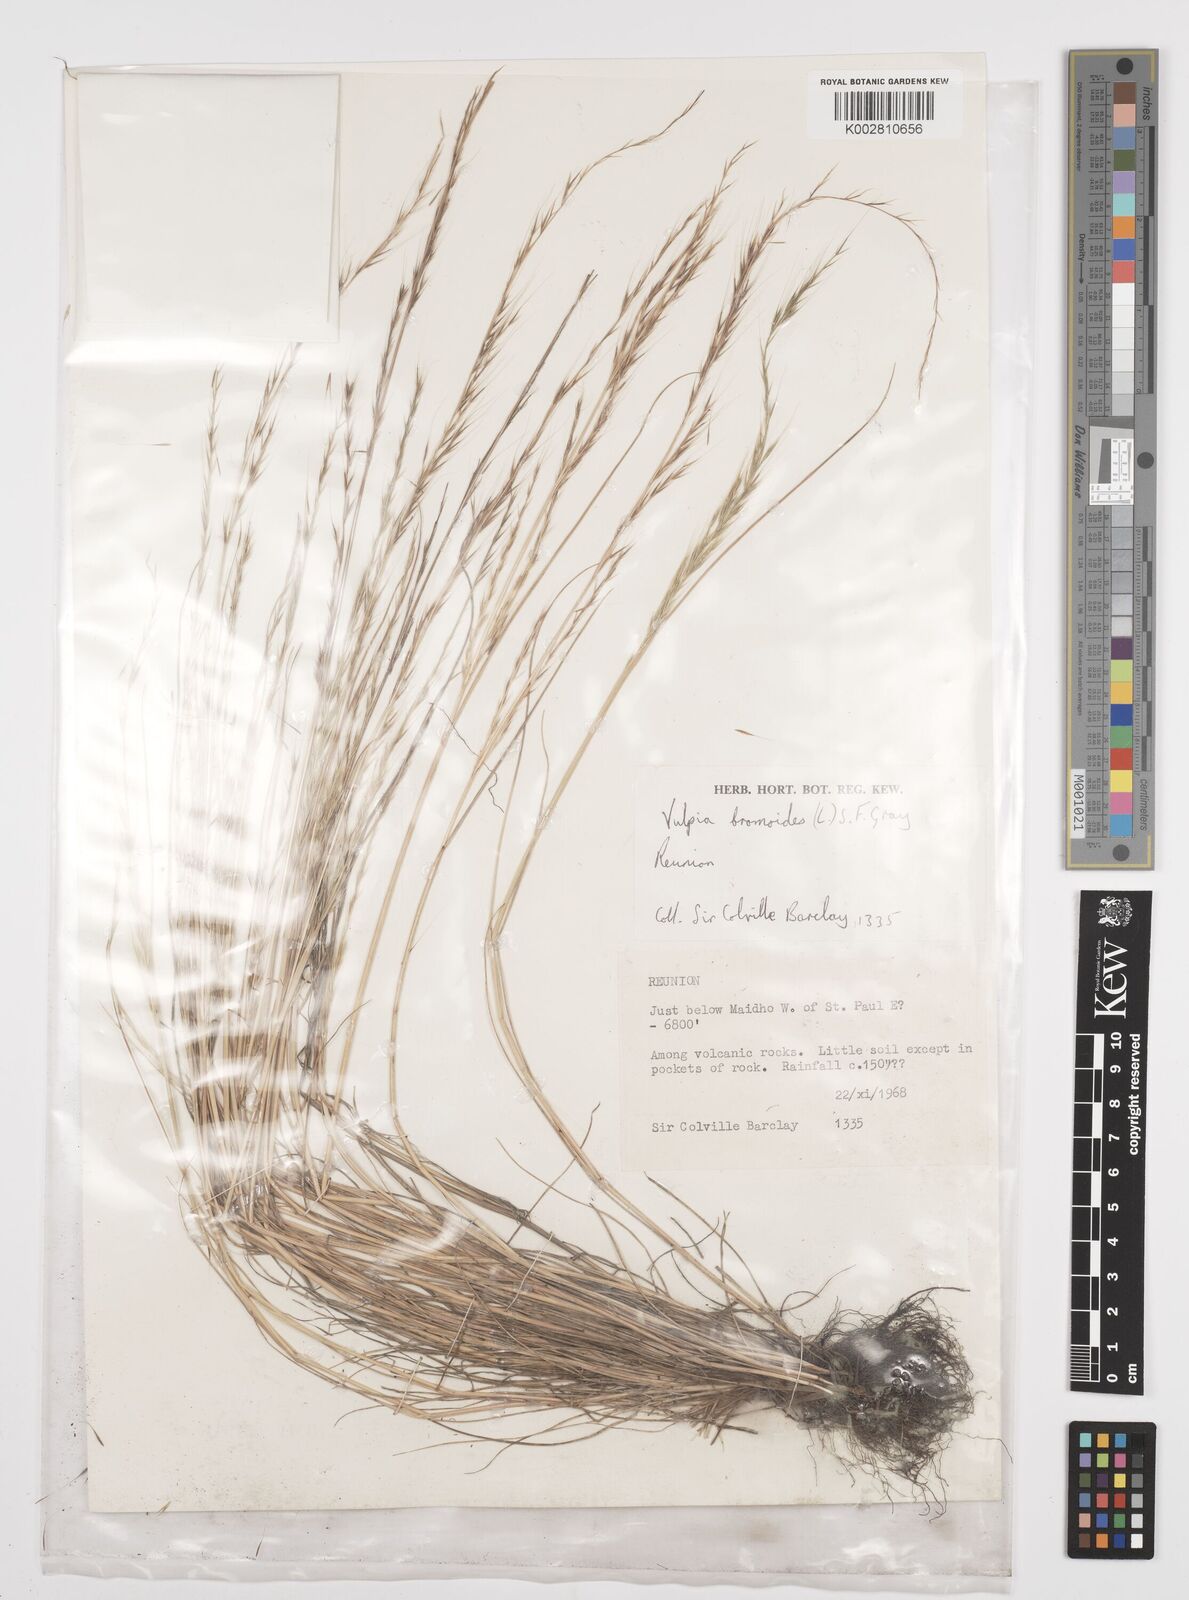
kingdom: Plantae
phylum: Tracheophyta
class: Liliopsida
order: Poales
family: Poaceae
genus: Festuca
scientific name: Festuca bromoides
